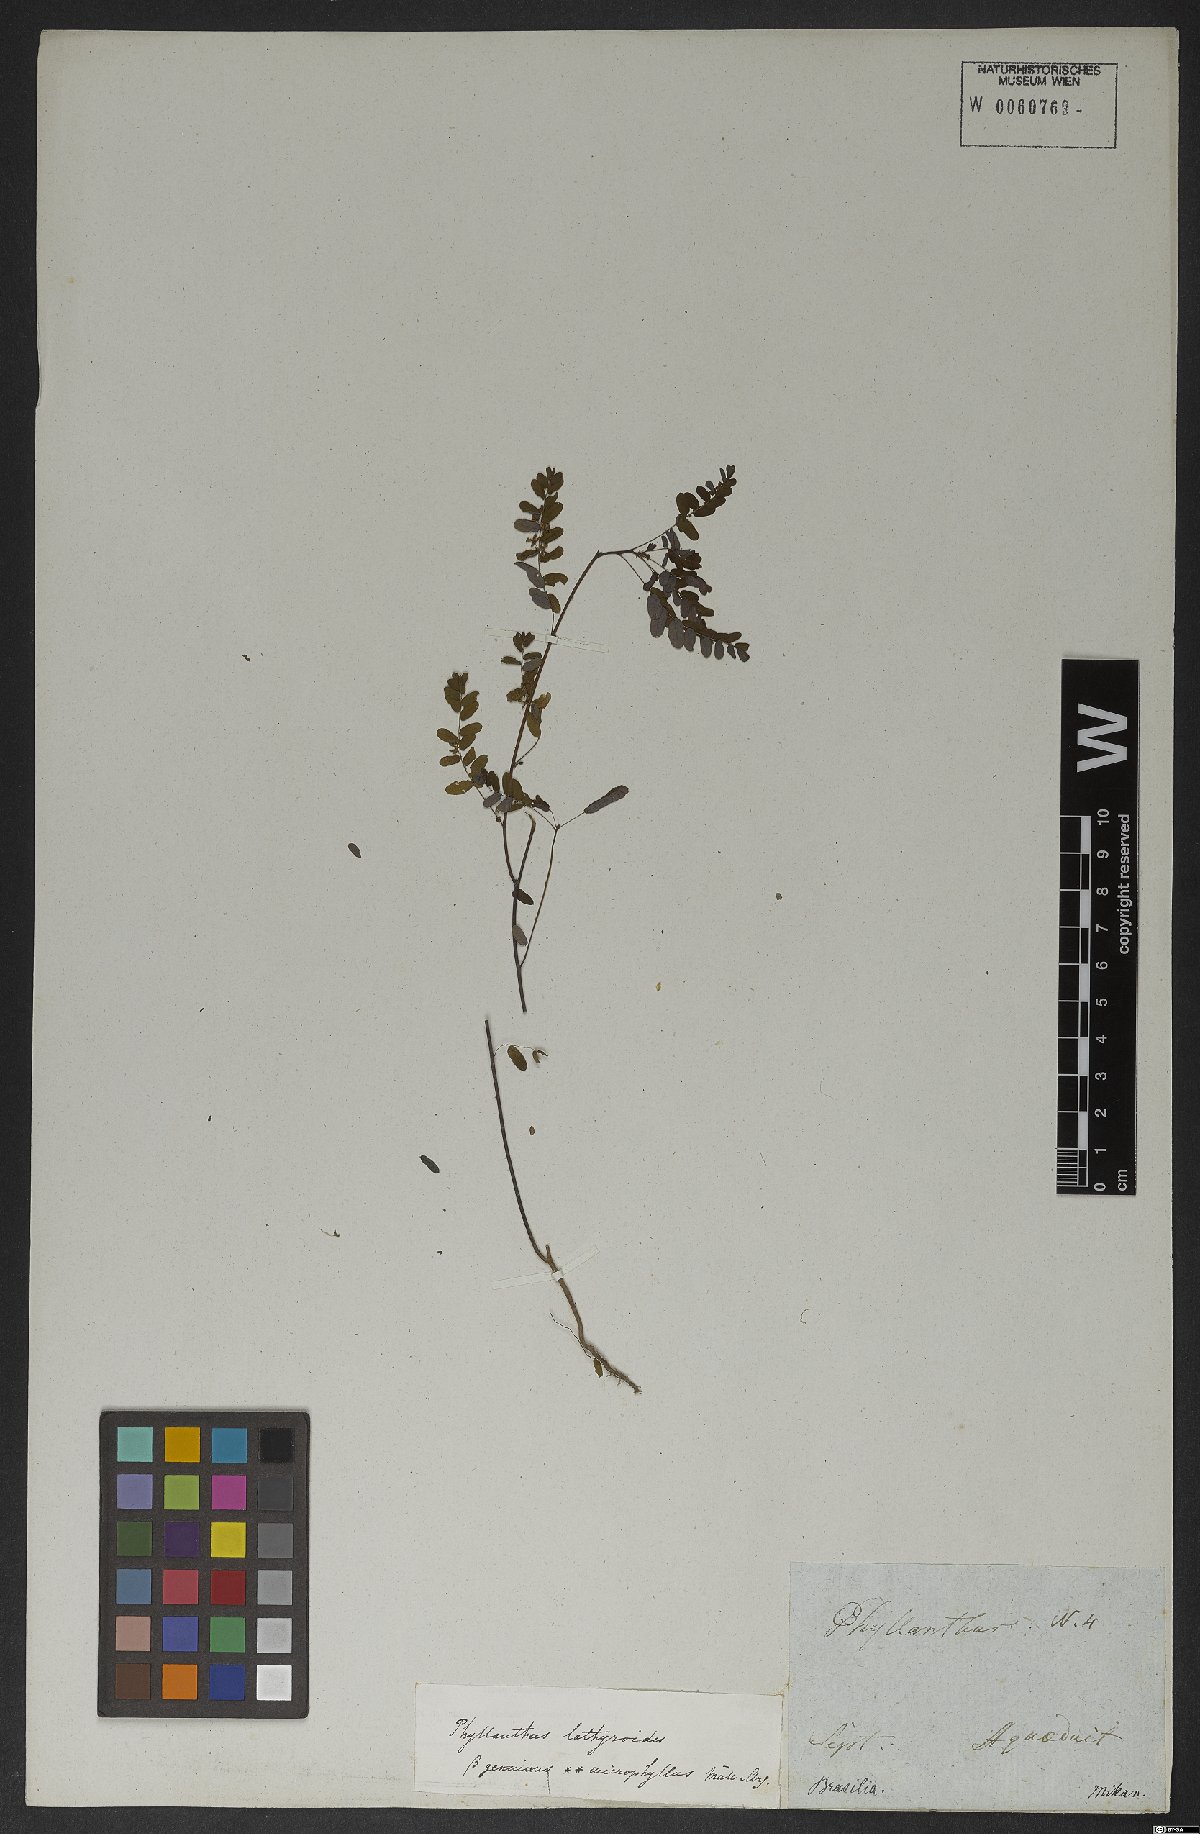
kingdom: Plantae
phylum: Tracheophyta
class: Magnoliopsida
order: Malpighiales
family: Phyllanthaceae
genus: Phyllanthus
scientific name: Phyllanthus niruri
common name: Niruri
